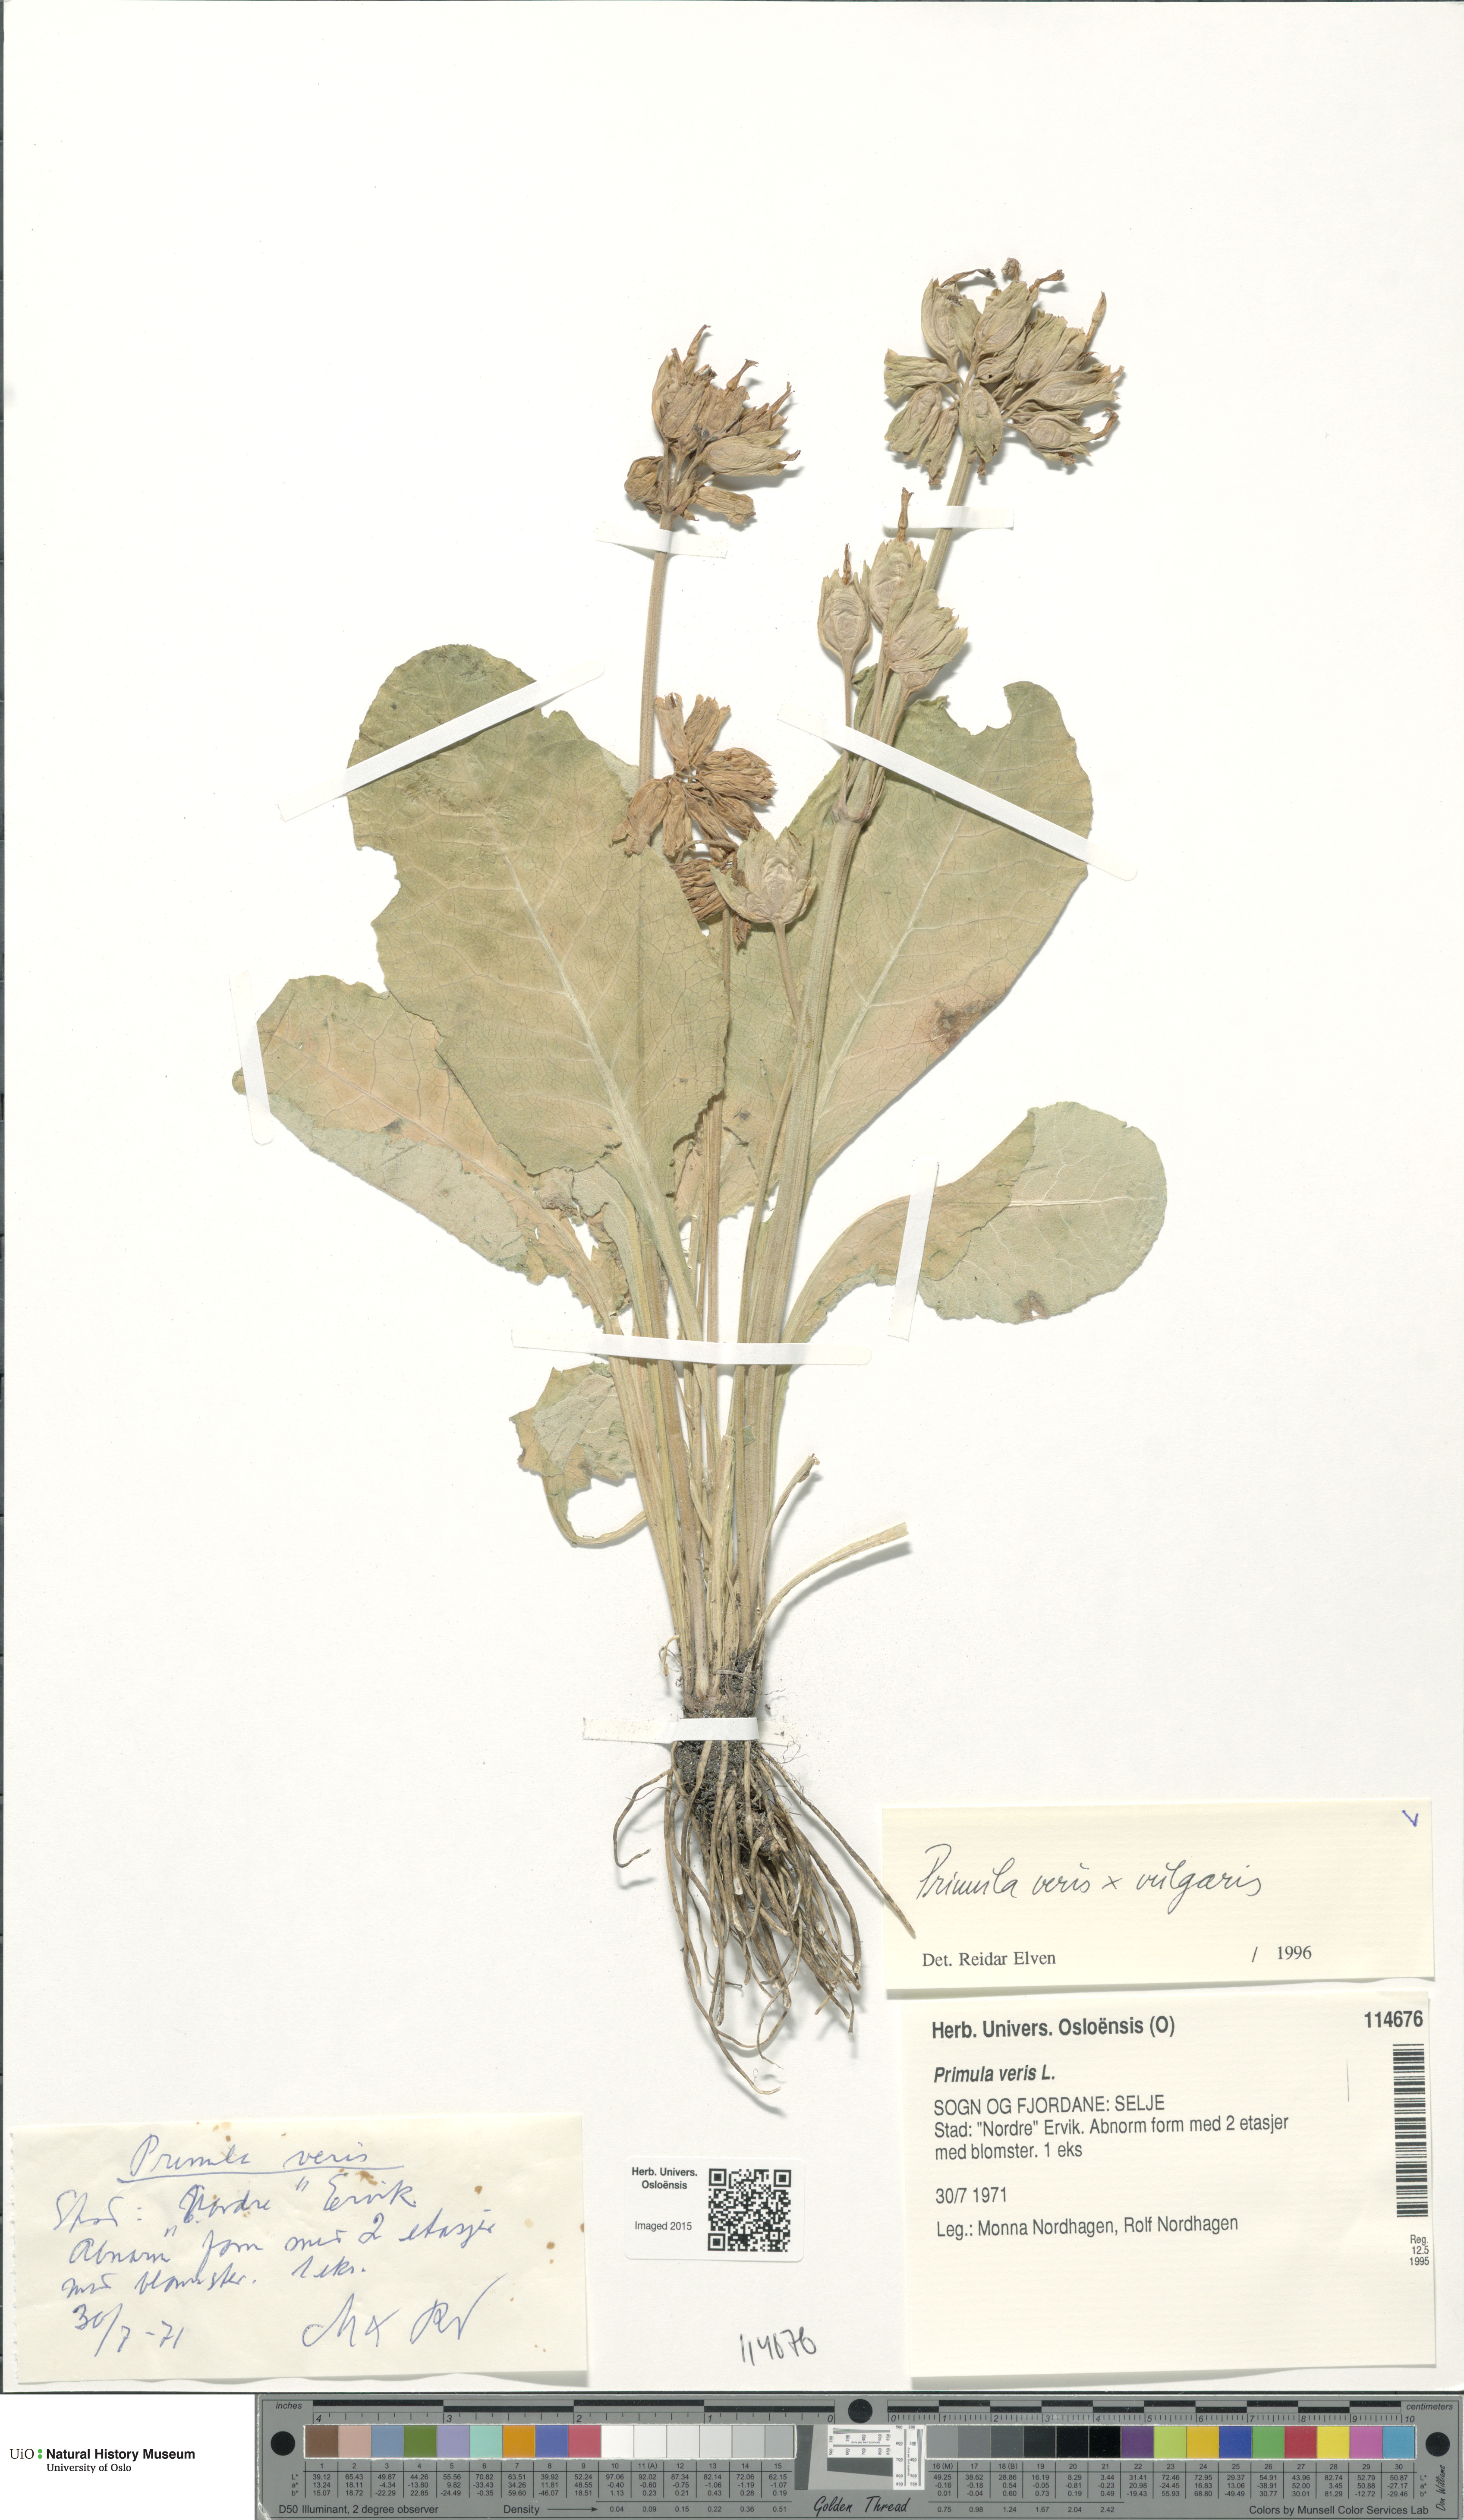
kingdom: Plantae
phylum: Tracheophyta
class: Magnoliopsida
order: Ericales
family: Primulaceae
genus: Primula
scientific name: Primula
